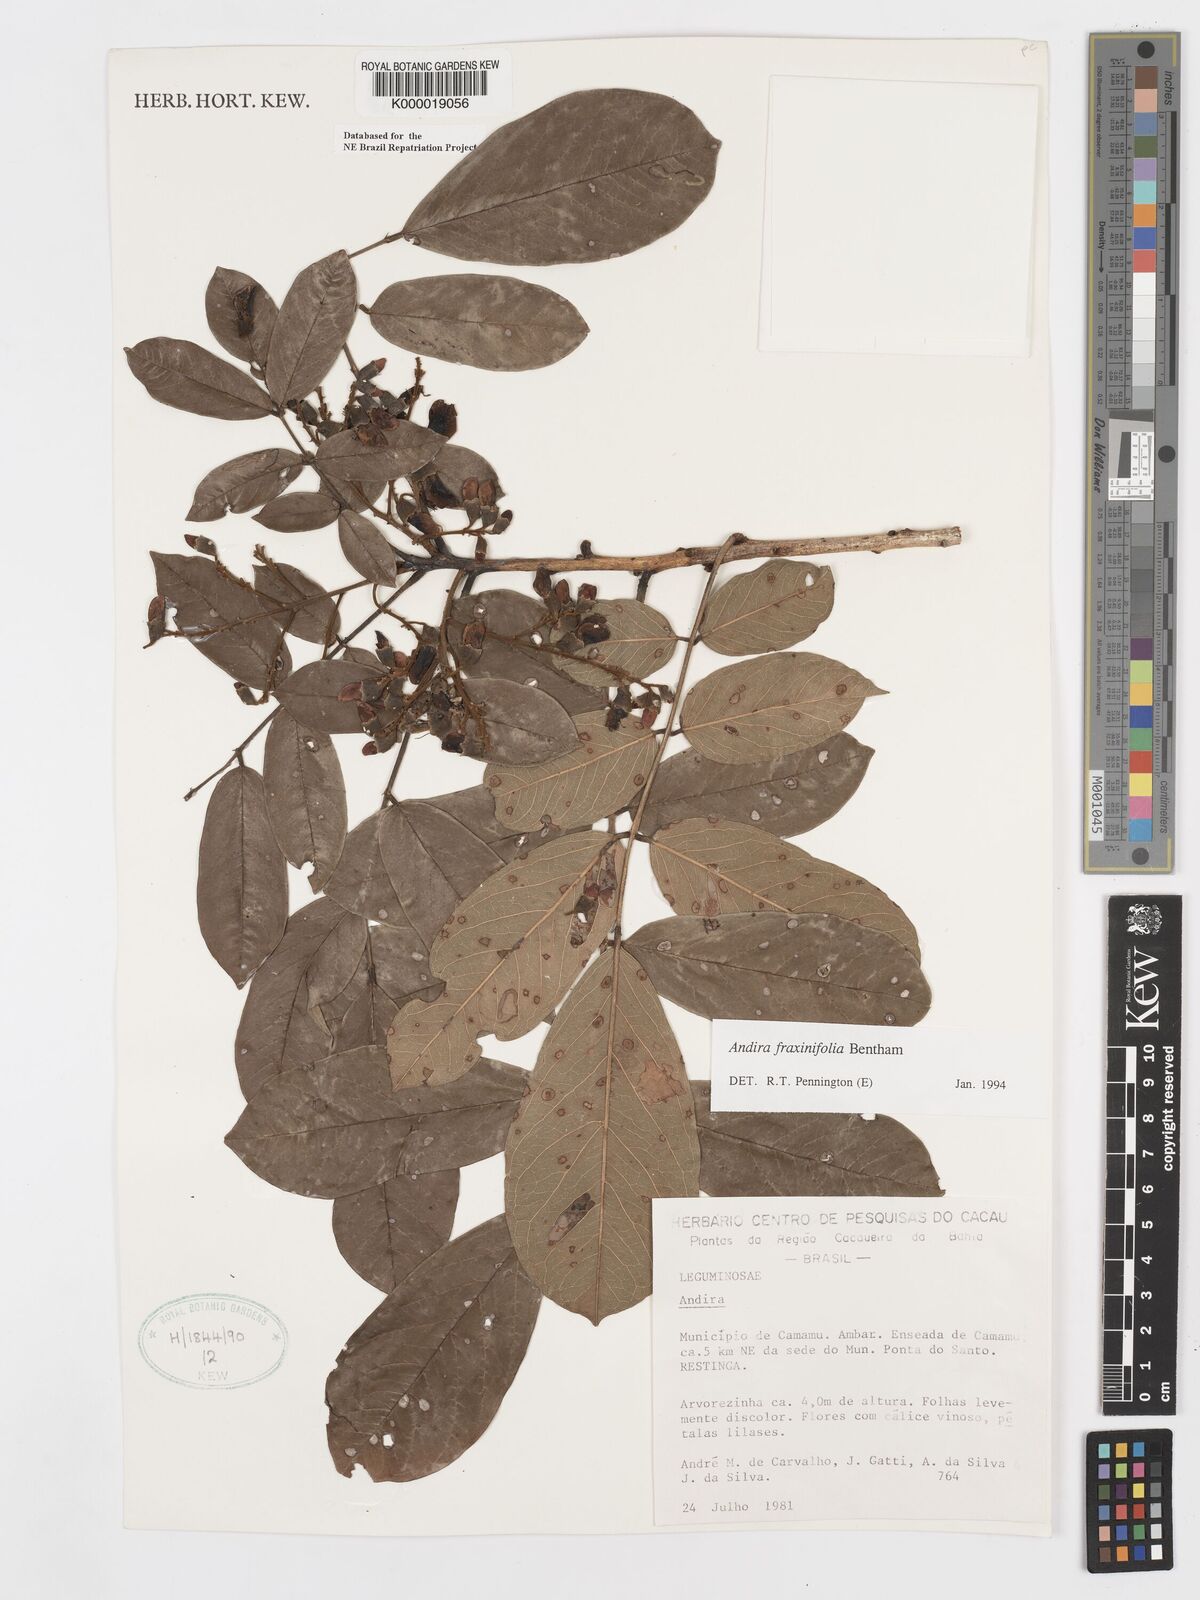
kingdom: Plantae
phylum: Tracheophyta
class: Magnoliopsida
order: Fabales
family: Fabaceae
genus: Andira
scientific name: Andira fraxinifolia
